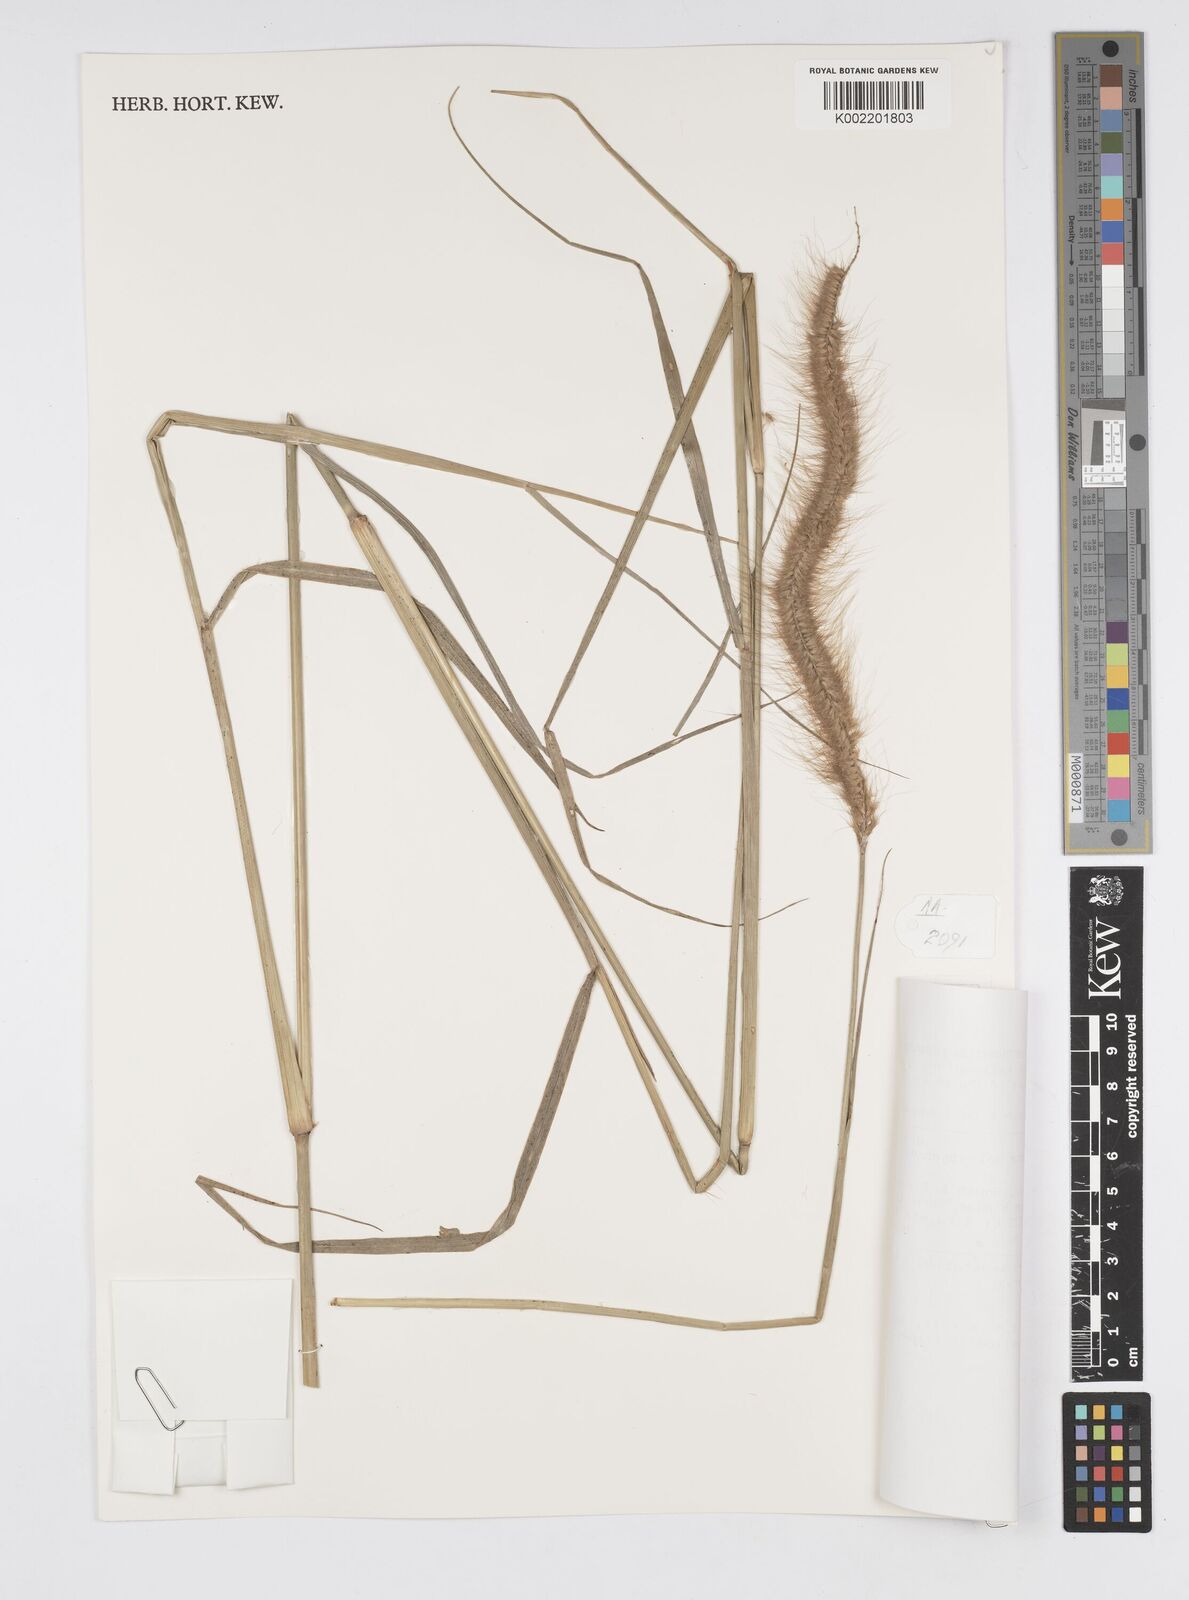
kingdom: Plantae
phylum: Tracheophyta
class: Liliopsida
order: Poales
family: Poaceae
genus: Setaria
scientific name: Setaria parviflora
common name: Knotroot bristle-grass
